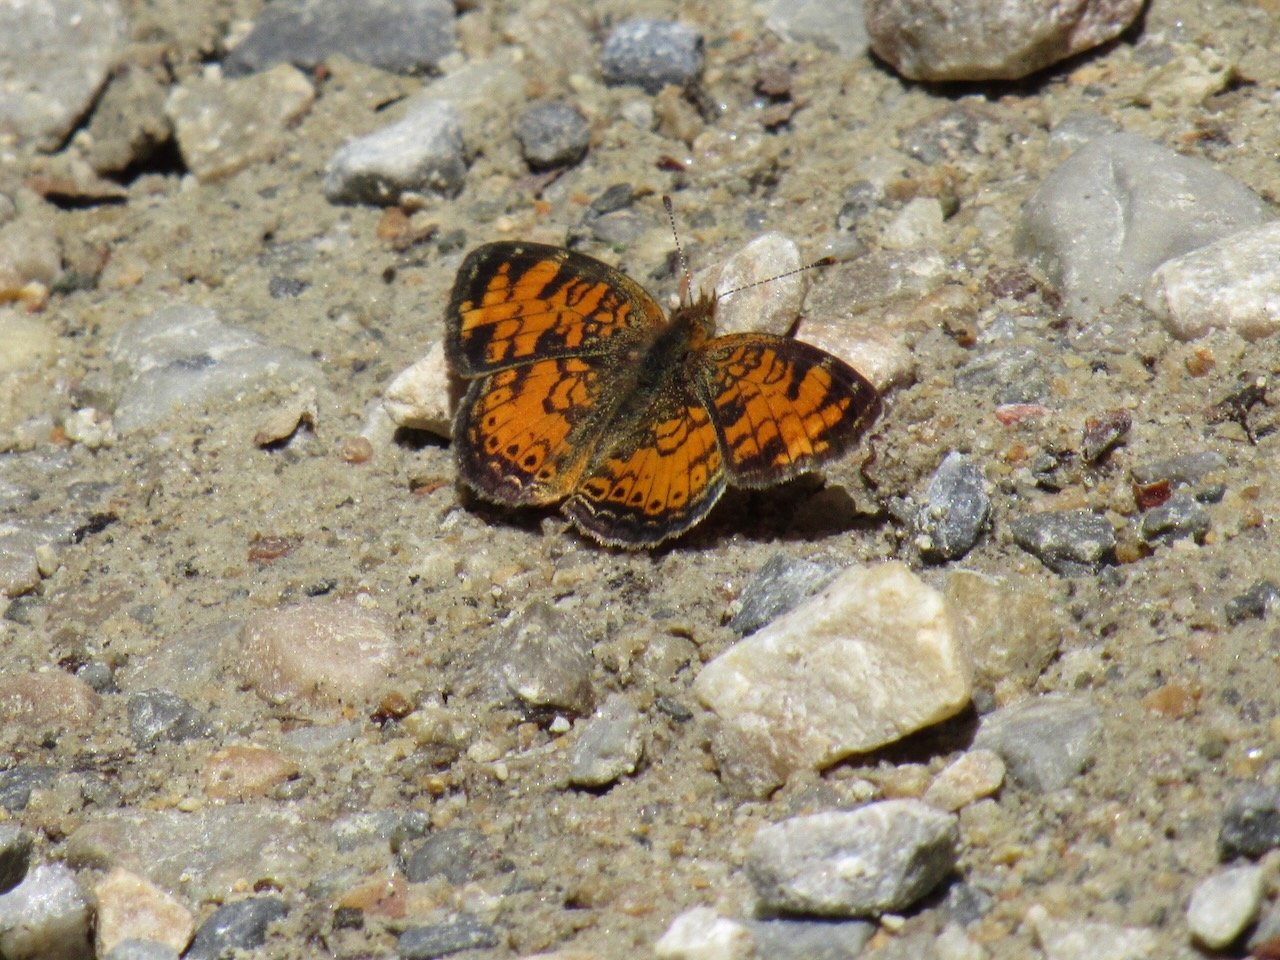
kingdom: Animalia
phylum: Arthropoda
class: Insecta
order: Lepidoptera
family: Nymphalidae
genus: Phyciodes
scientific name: Phyciodes tharos
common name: Pearl Crescent
